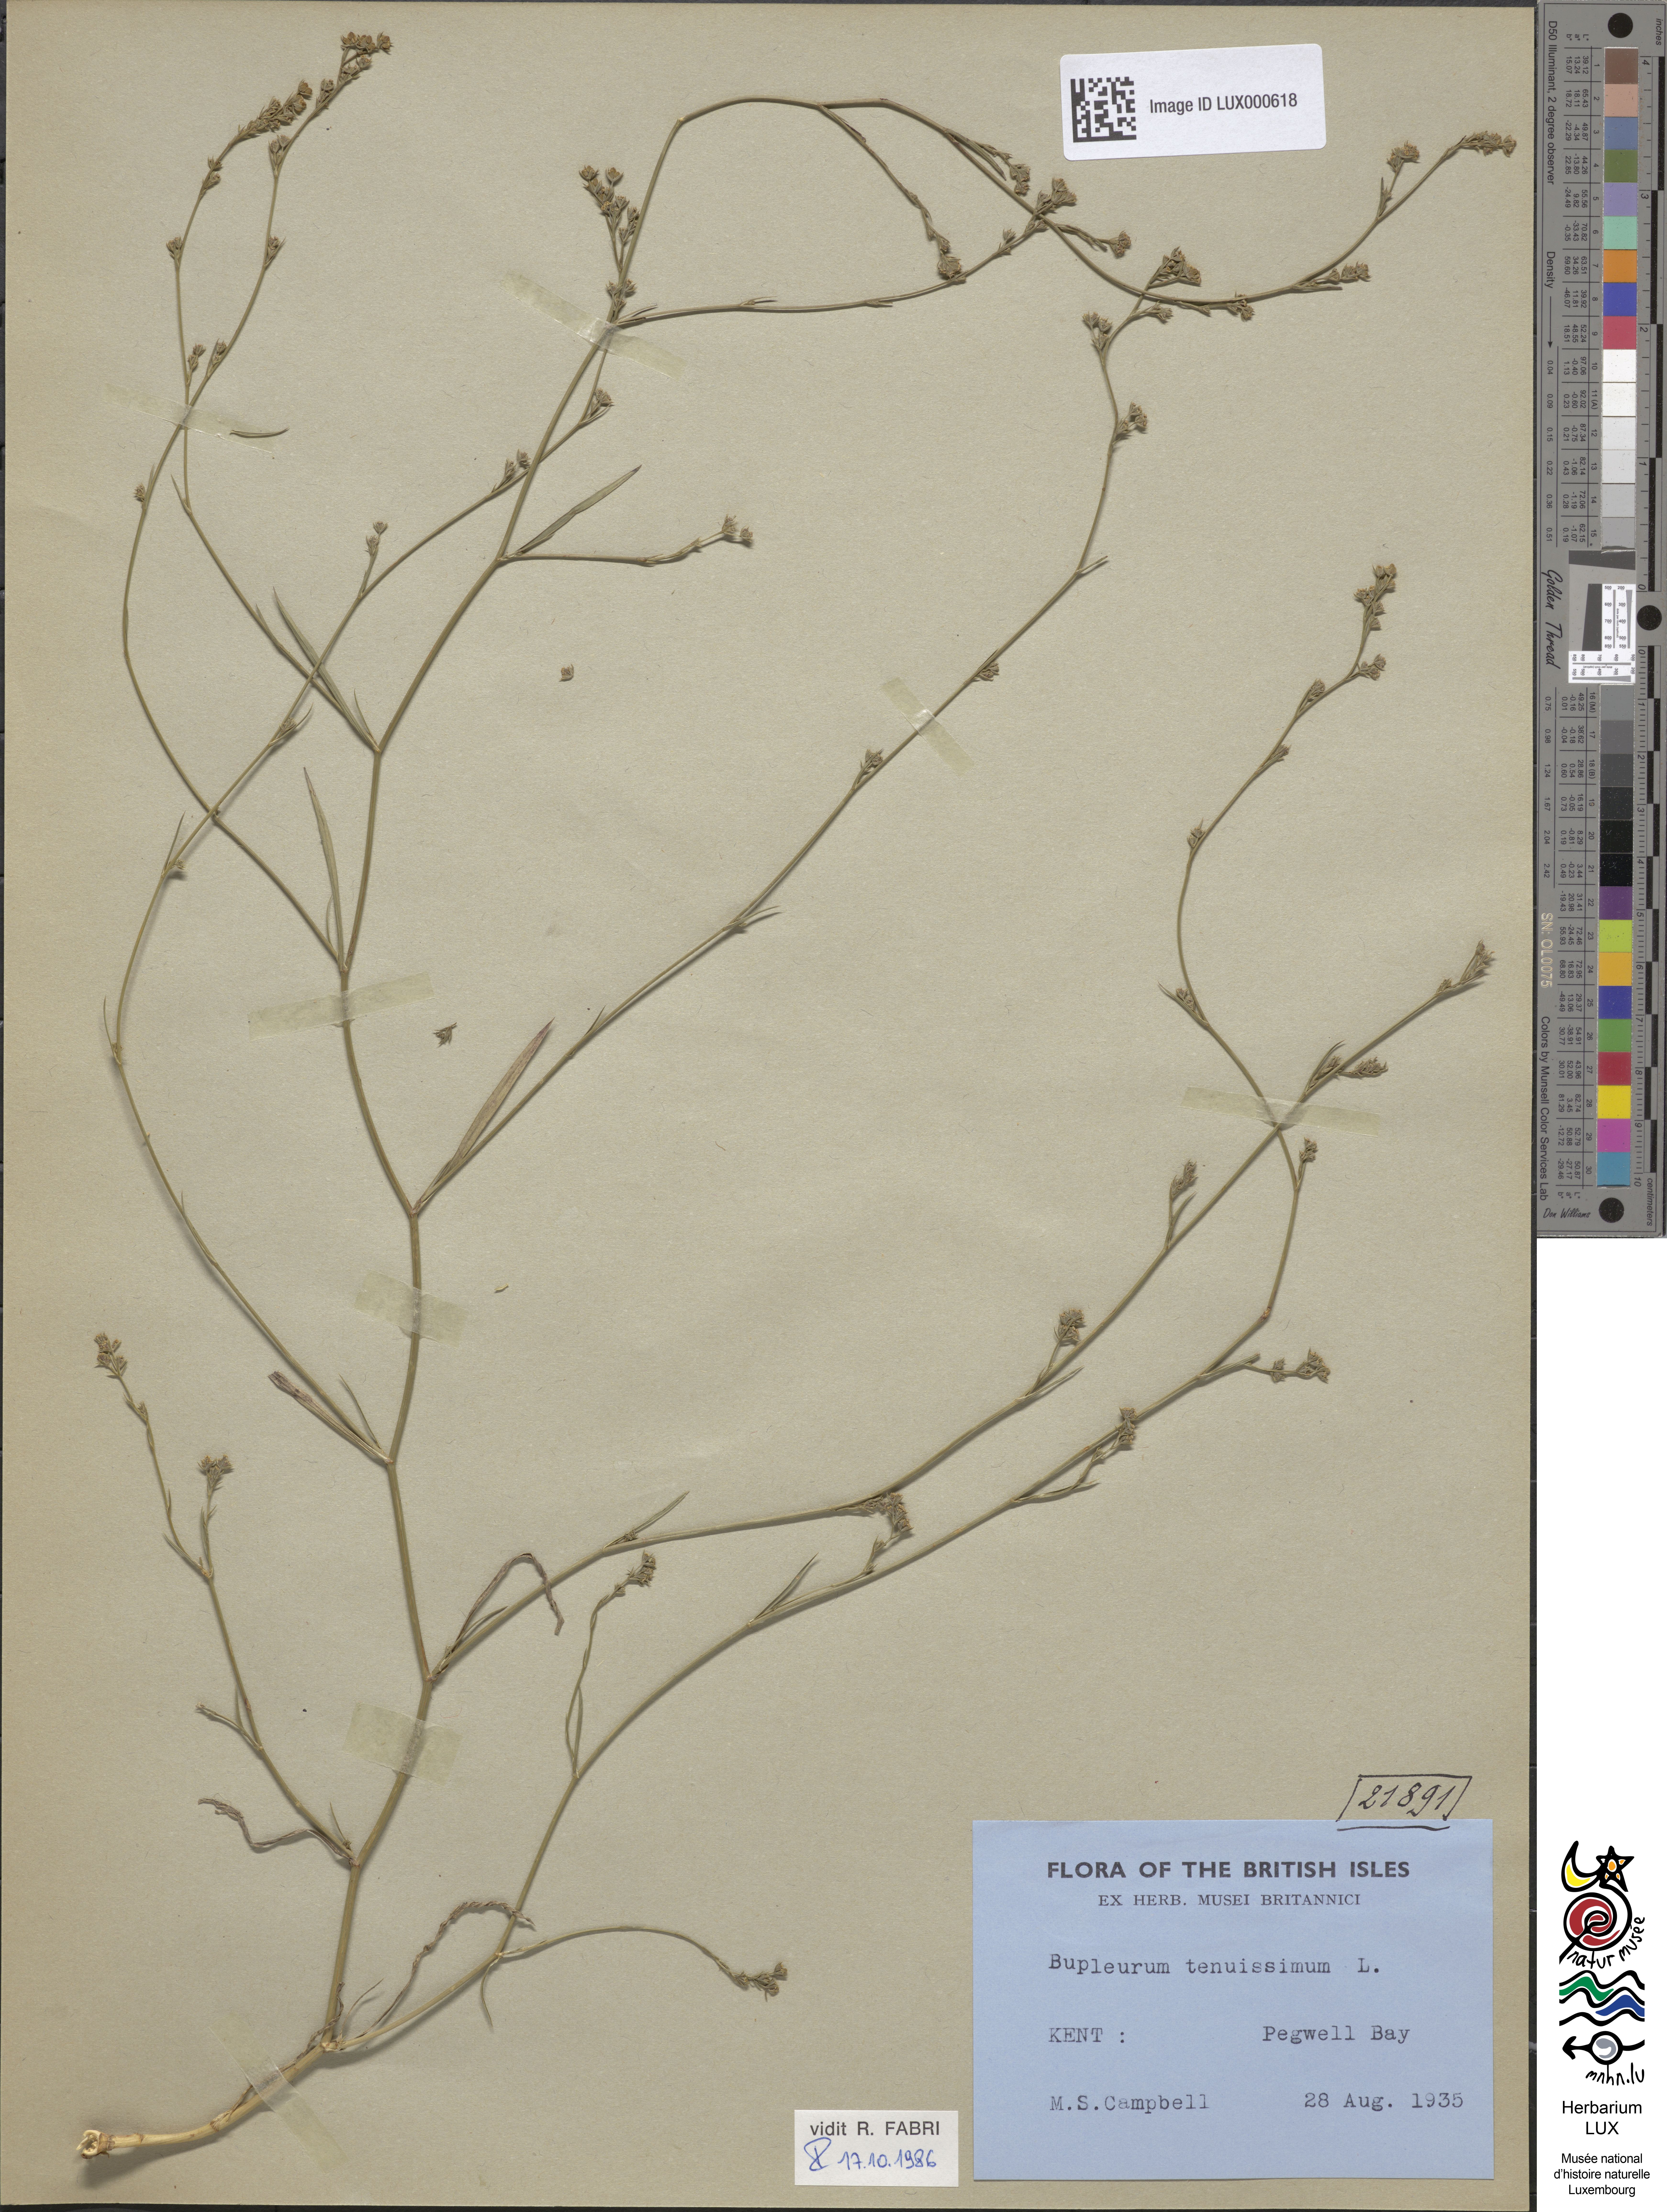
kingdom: Plantae
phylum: Tracheophyta
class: Magnoliopsida
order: Apiales
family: Apiaceae
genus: Bupleurum
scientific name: Bupleurum tenuissimum
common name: Slender hare's-ear
